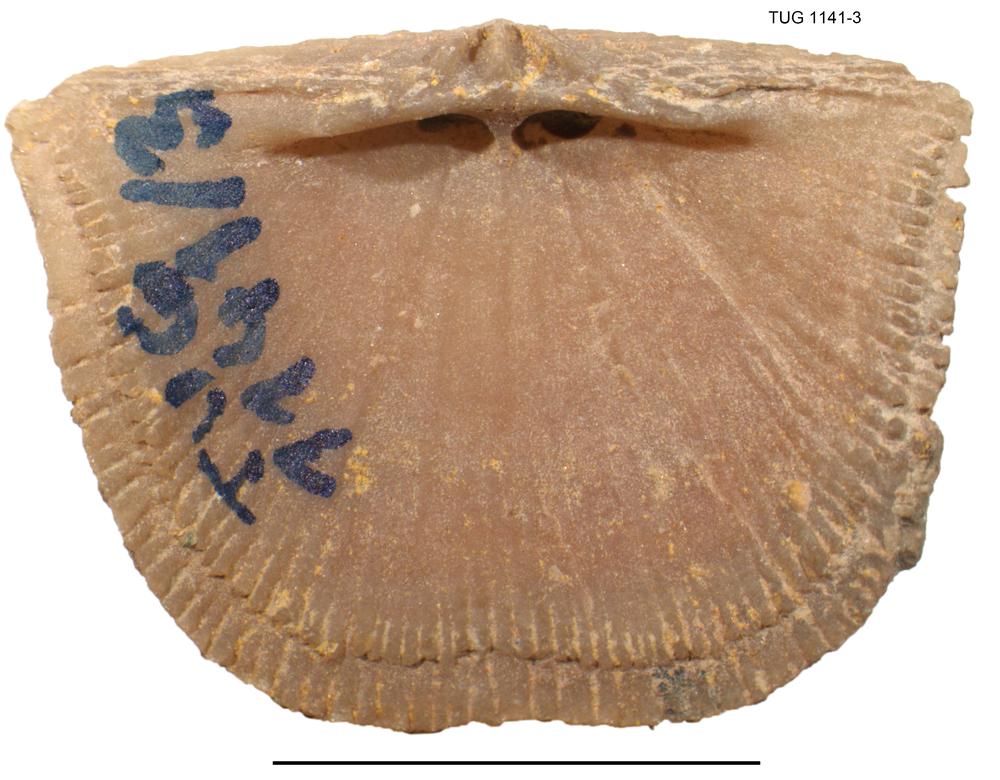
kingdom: Animalia
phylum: Brachiopoda
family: Gonambonitidae
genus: Gonambonites
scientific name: Gonambonites plana
